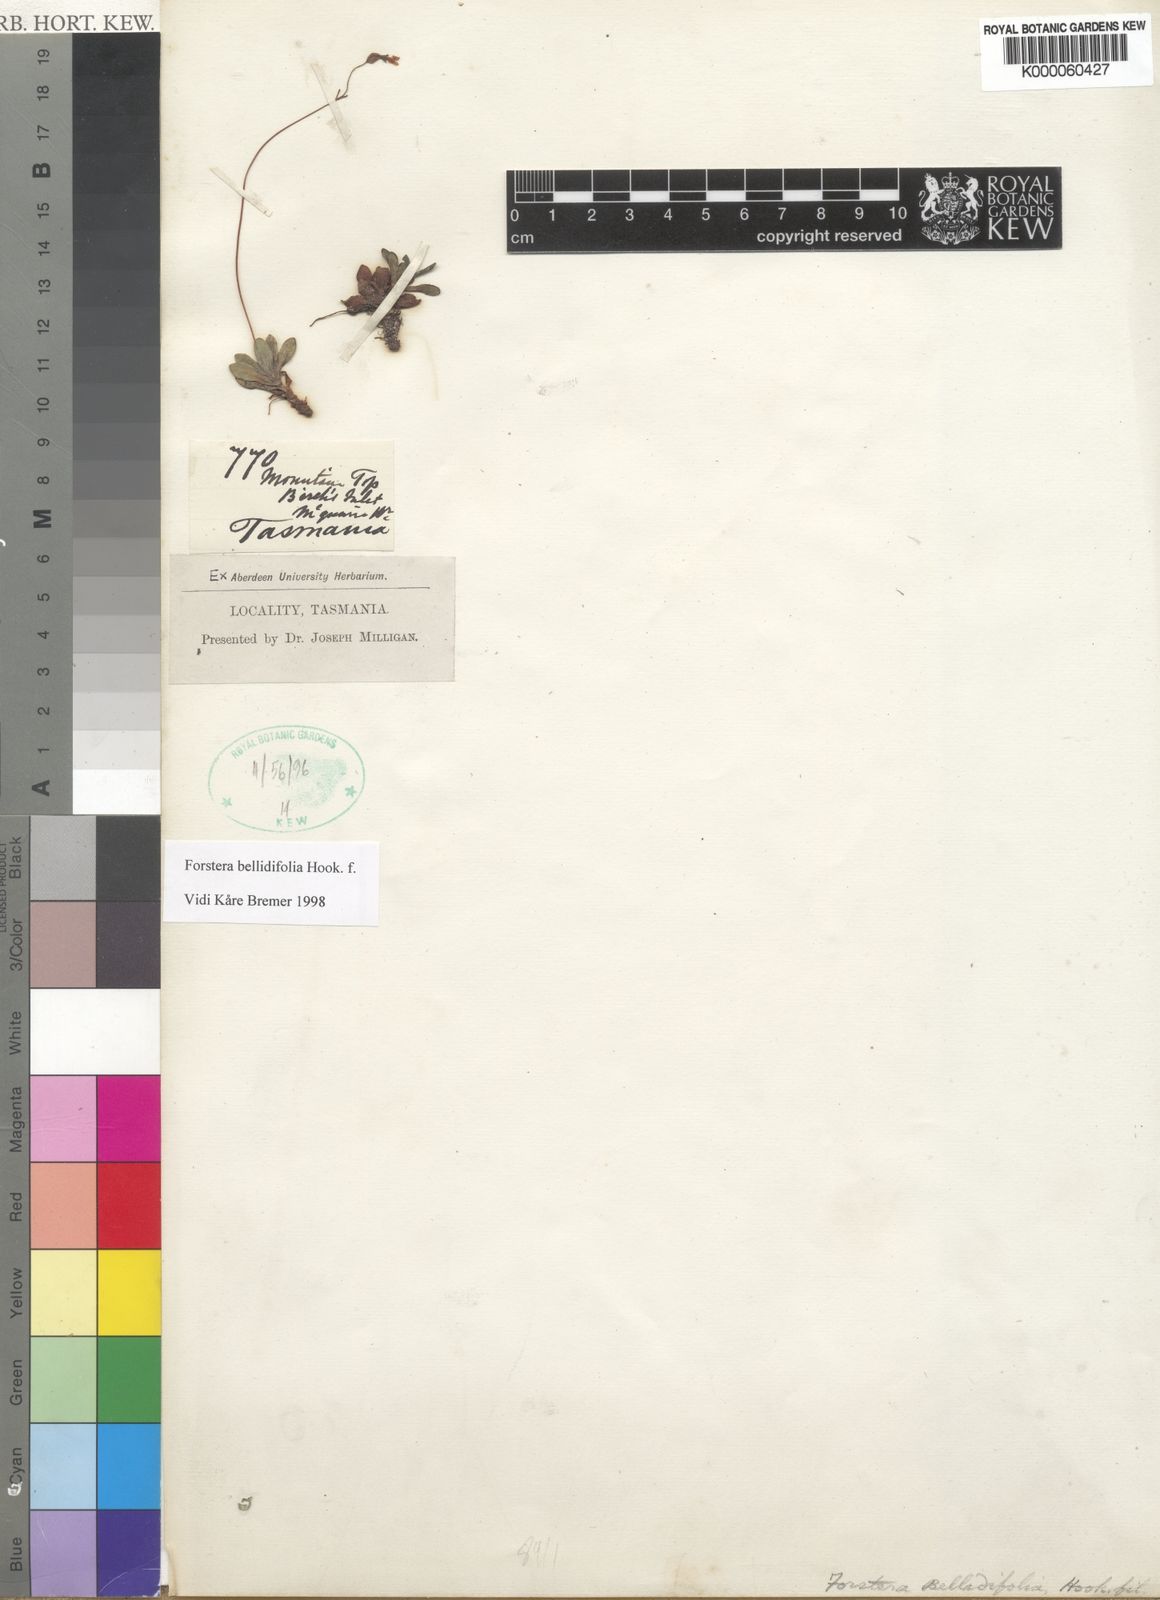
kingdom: Plantae
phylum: Tracheophyta
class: Magnoliopsida
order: Asterales
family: Stylidiaceae
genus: Forstera
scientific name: Forstera bellidifolia
